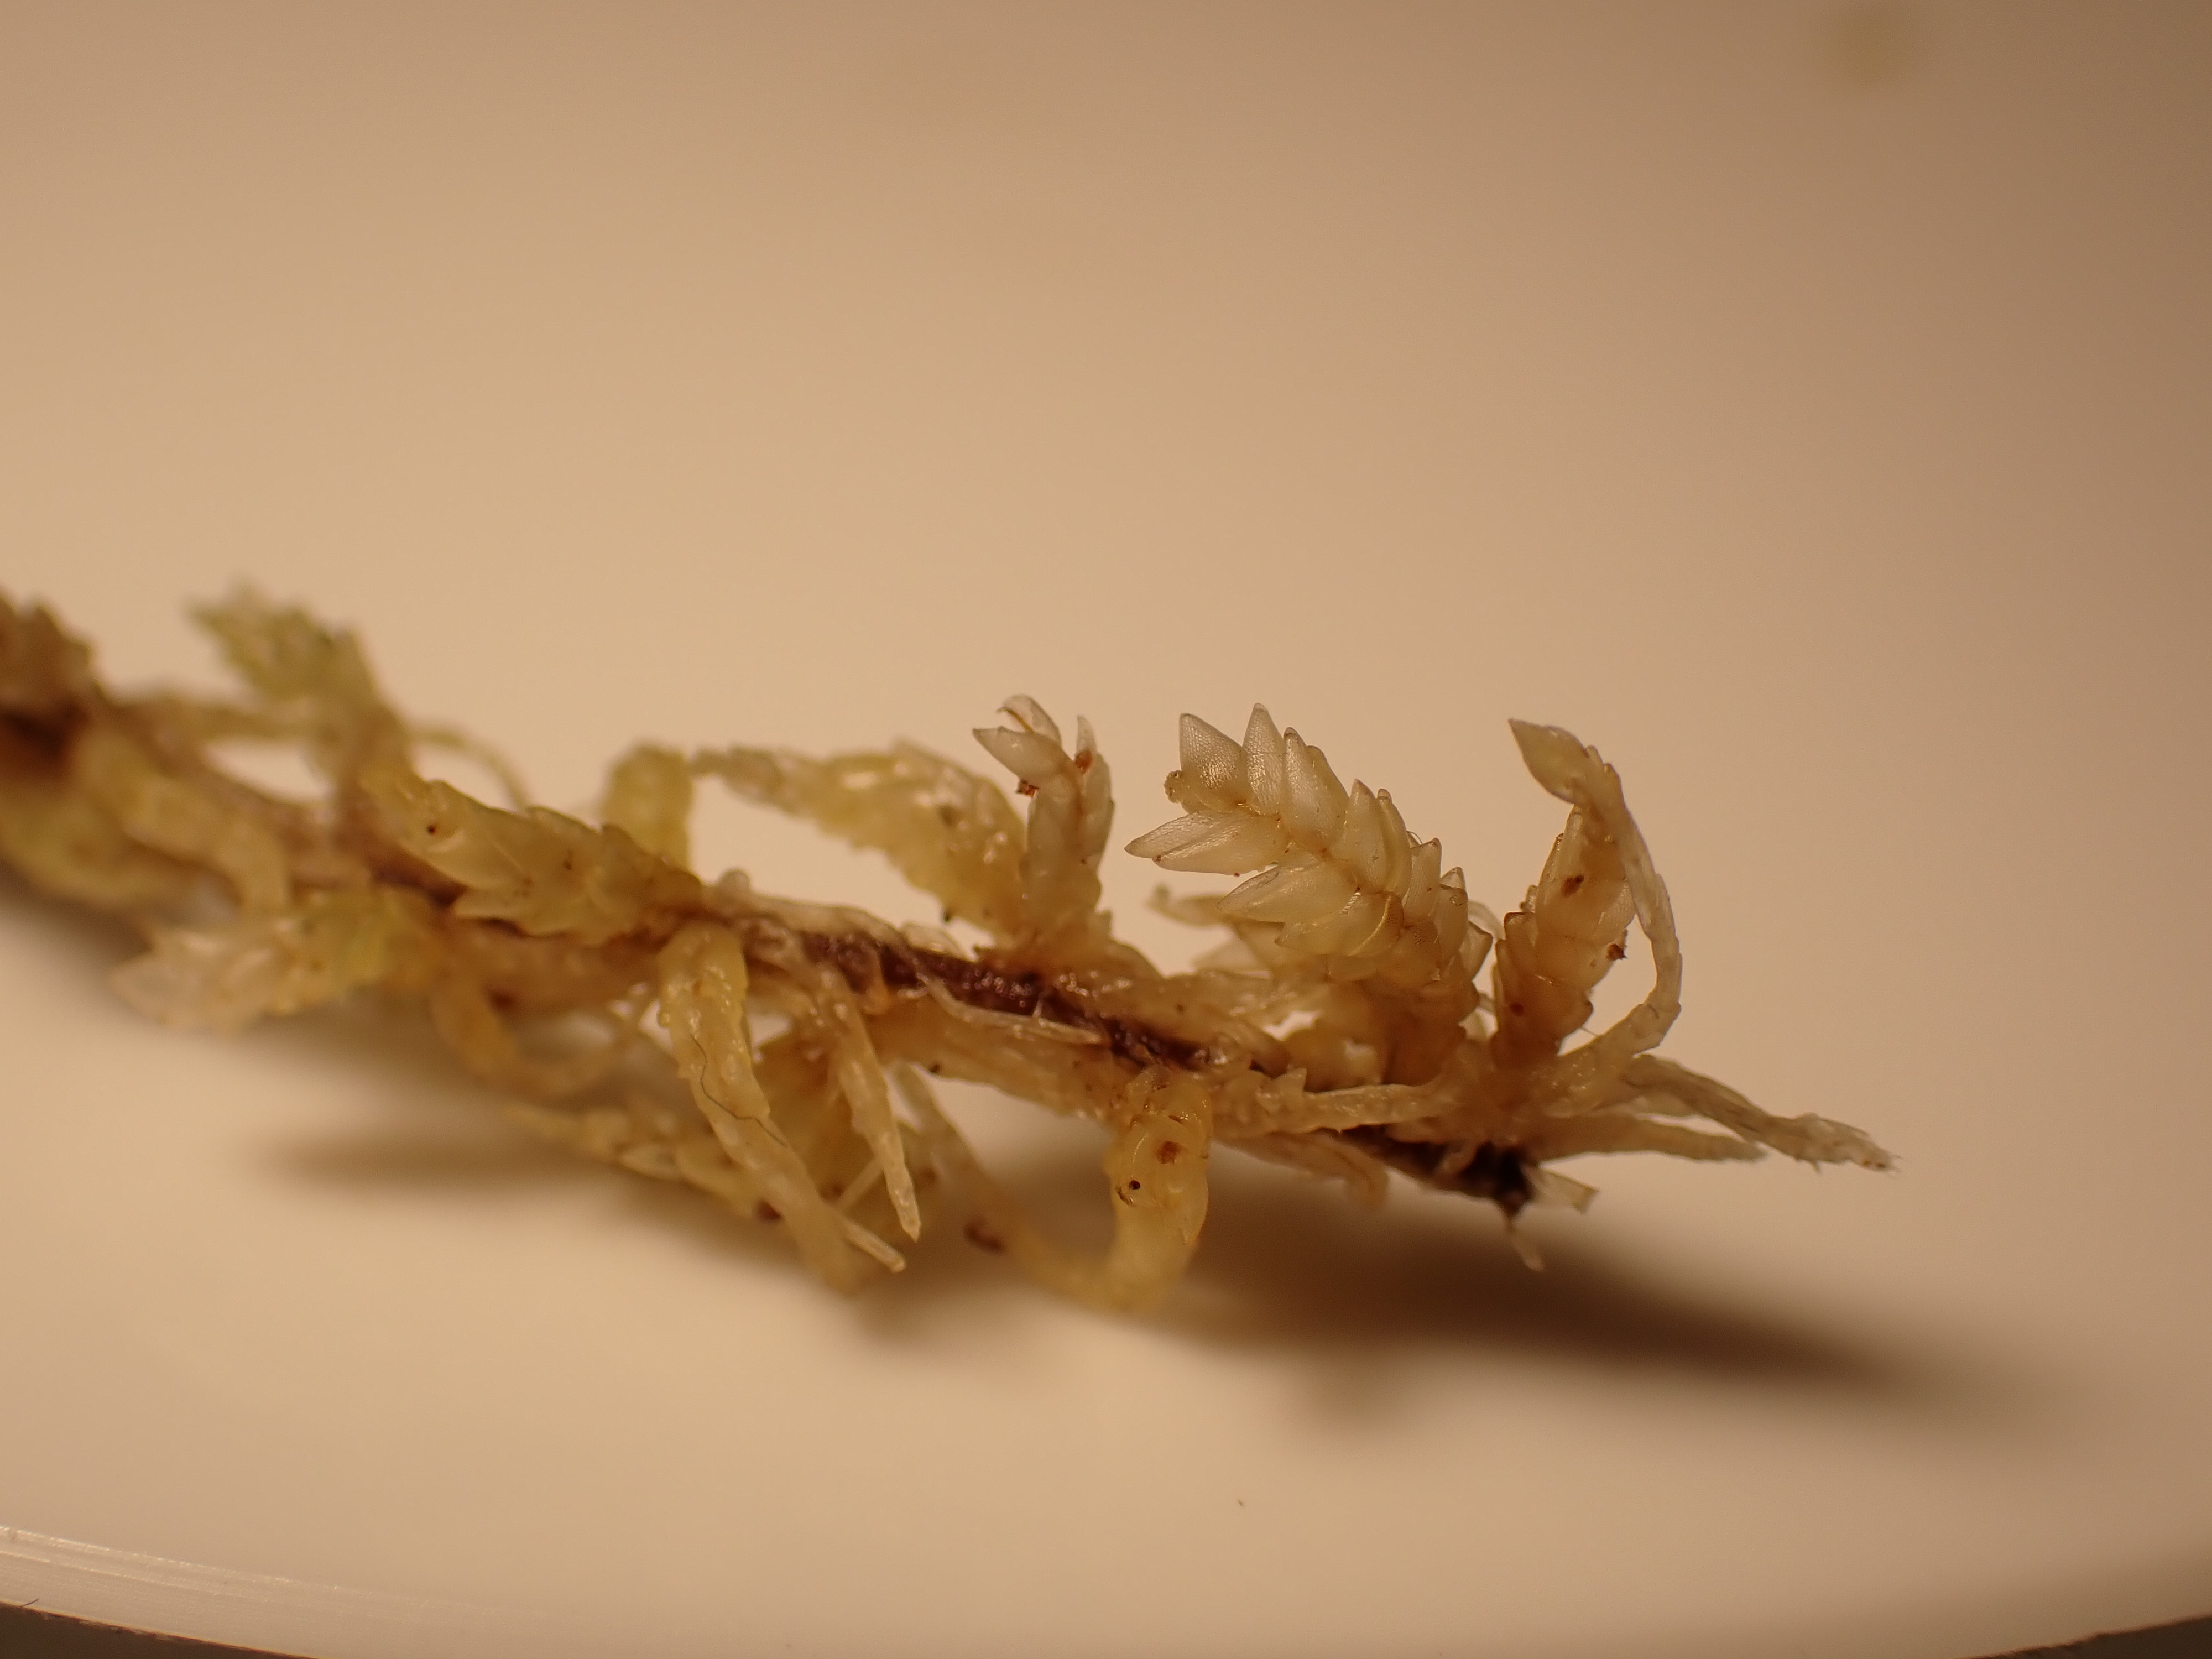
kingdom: Plantae
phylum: Bryophyta
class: Sphagnopsida
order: Sphagnales
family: Sphagnaceae
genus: Sphagnum
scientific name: Sphagnum papillosum
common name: Sod-tørvemos
